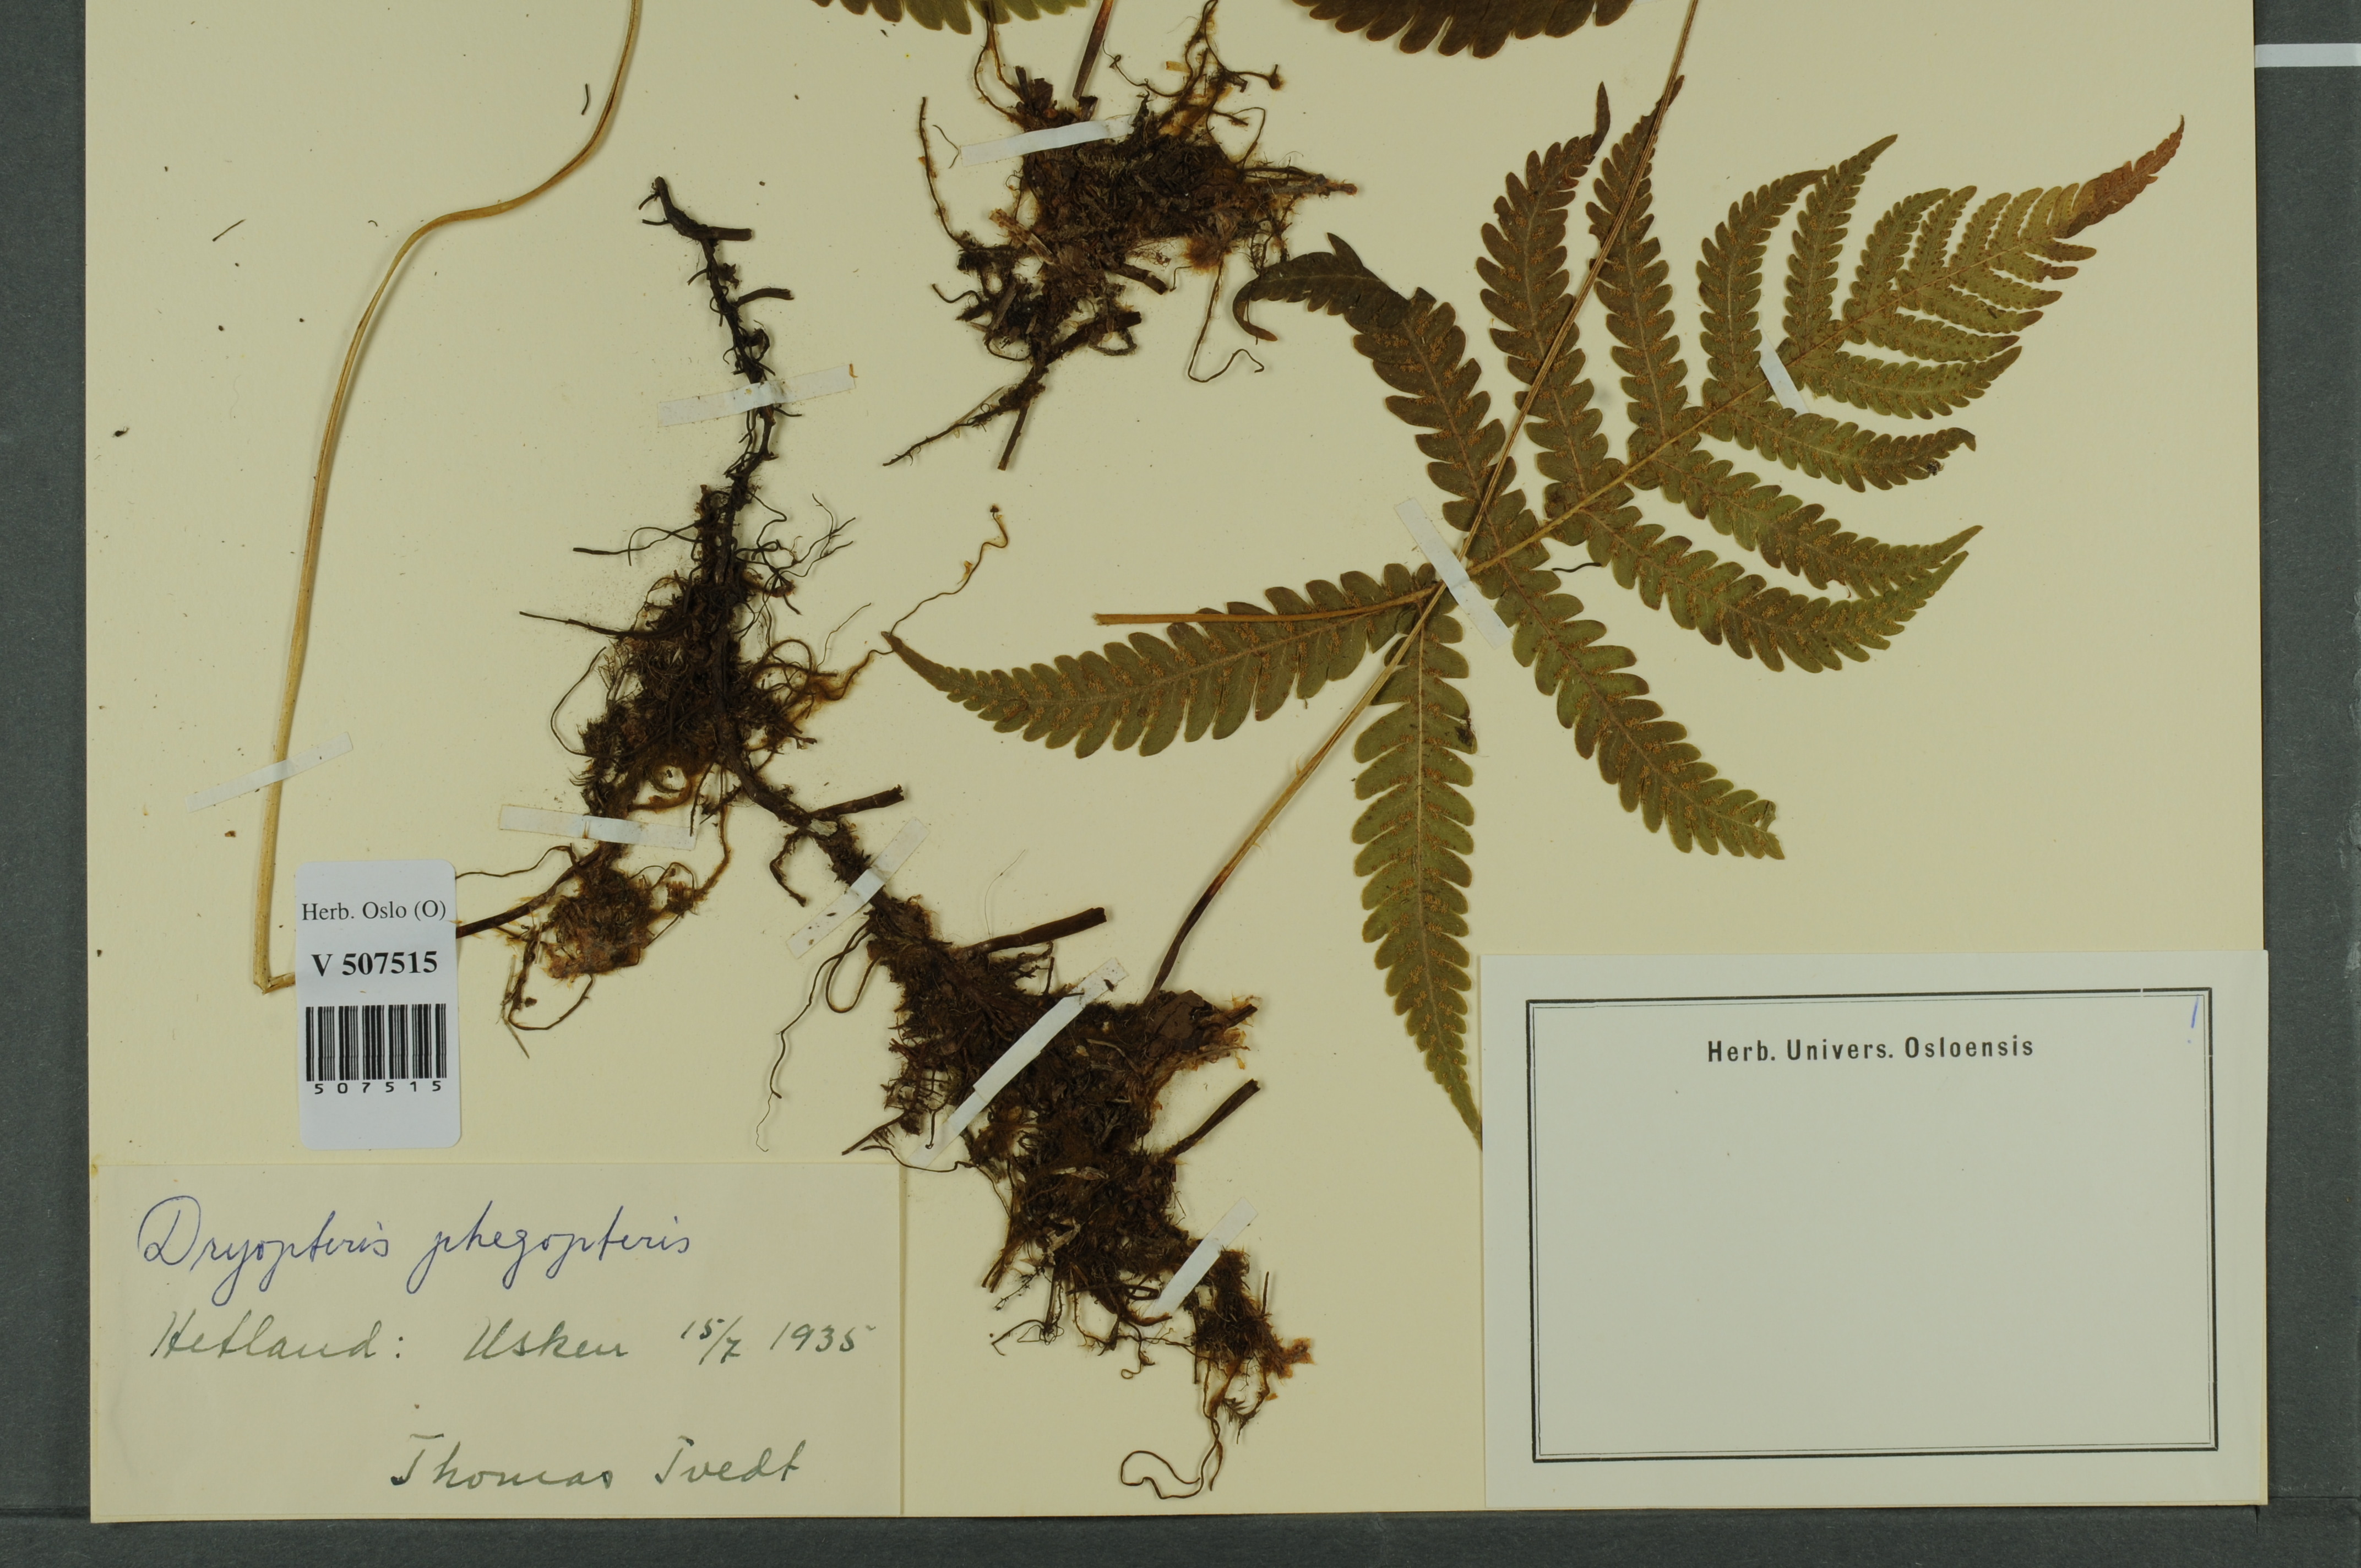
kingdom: Plantae
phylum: Tracheophyta
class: Polypodiopsida
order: Polypodiales
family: Thelypteridaceae
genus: Phegopteris
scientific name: Phegopteris connectilis
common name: Beech fern
